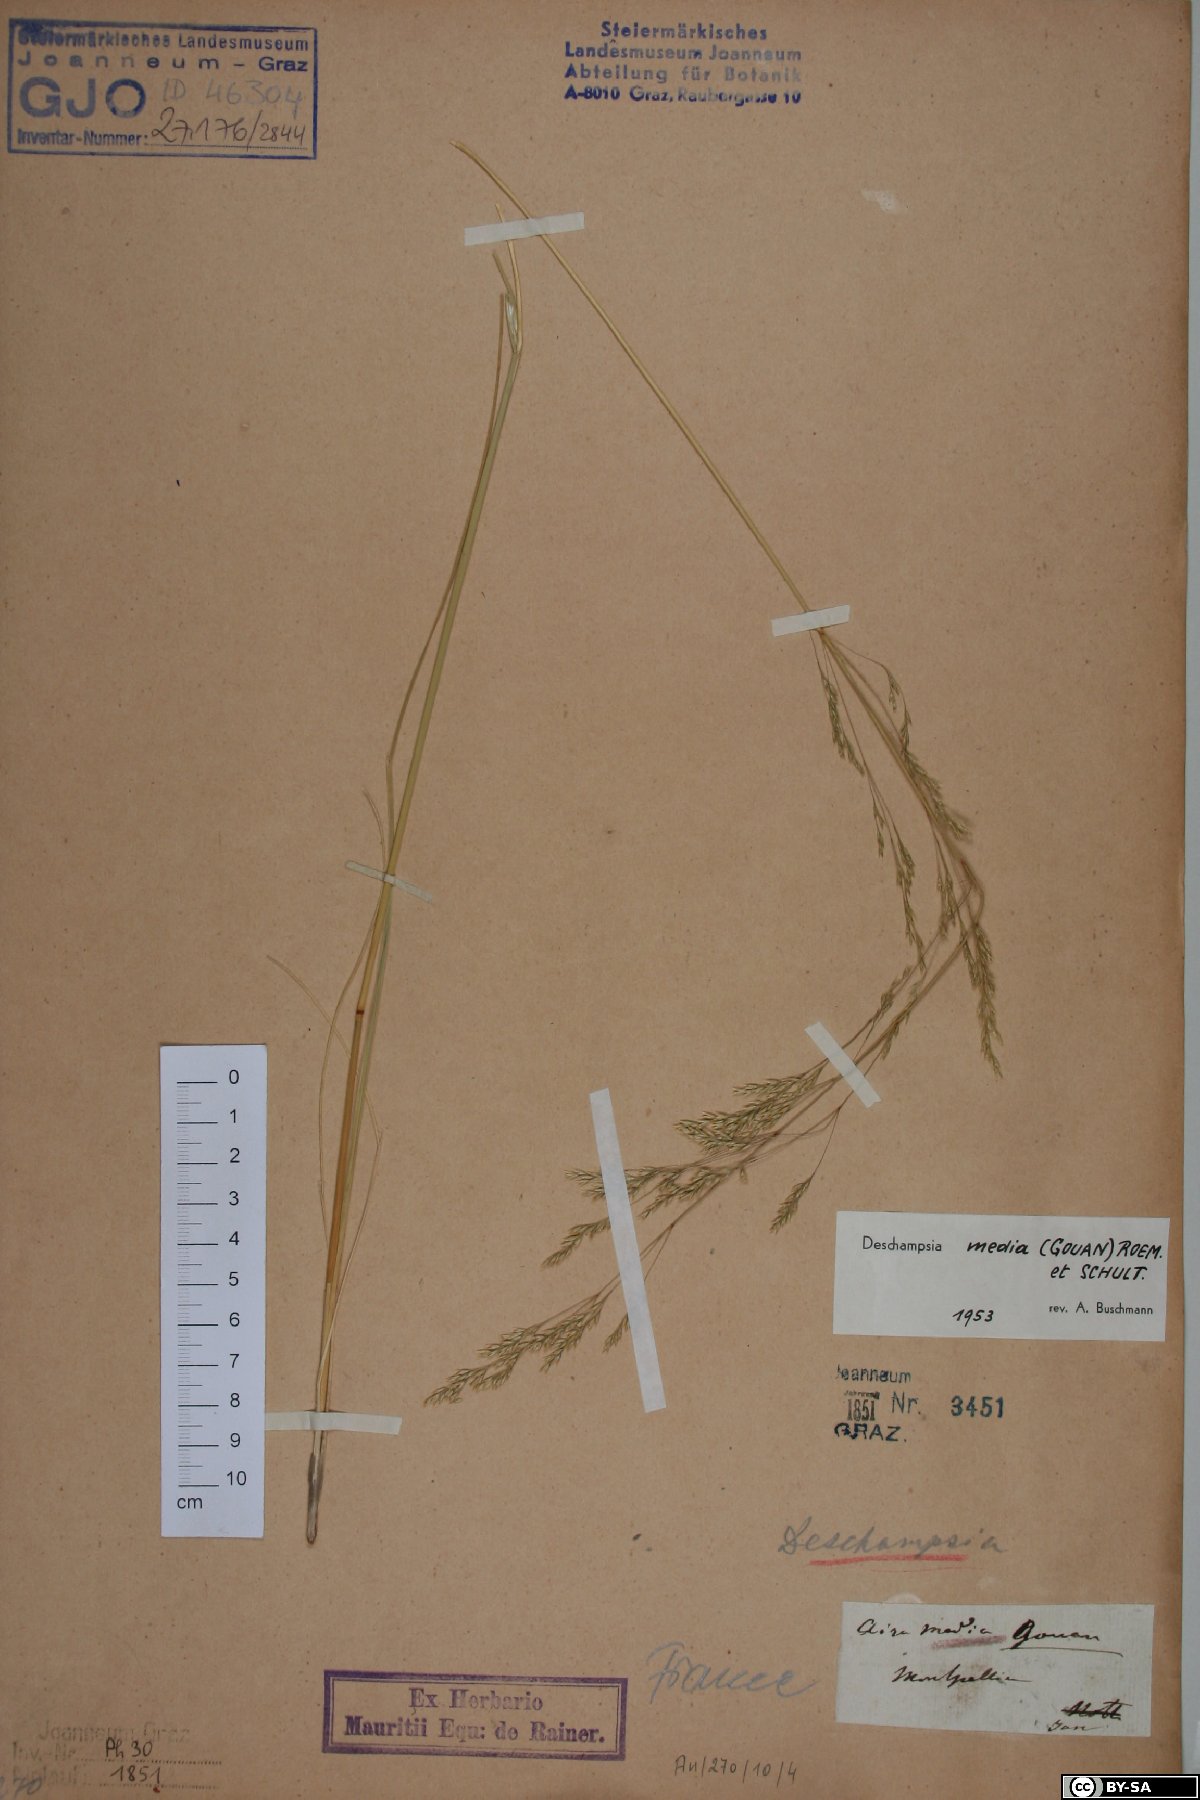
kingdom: Plantae
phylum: Tracheophyta
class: Liliopsida
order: Poales
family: Poaceae
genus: Deschampsia
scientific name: Deschampsia media
